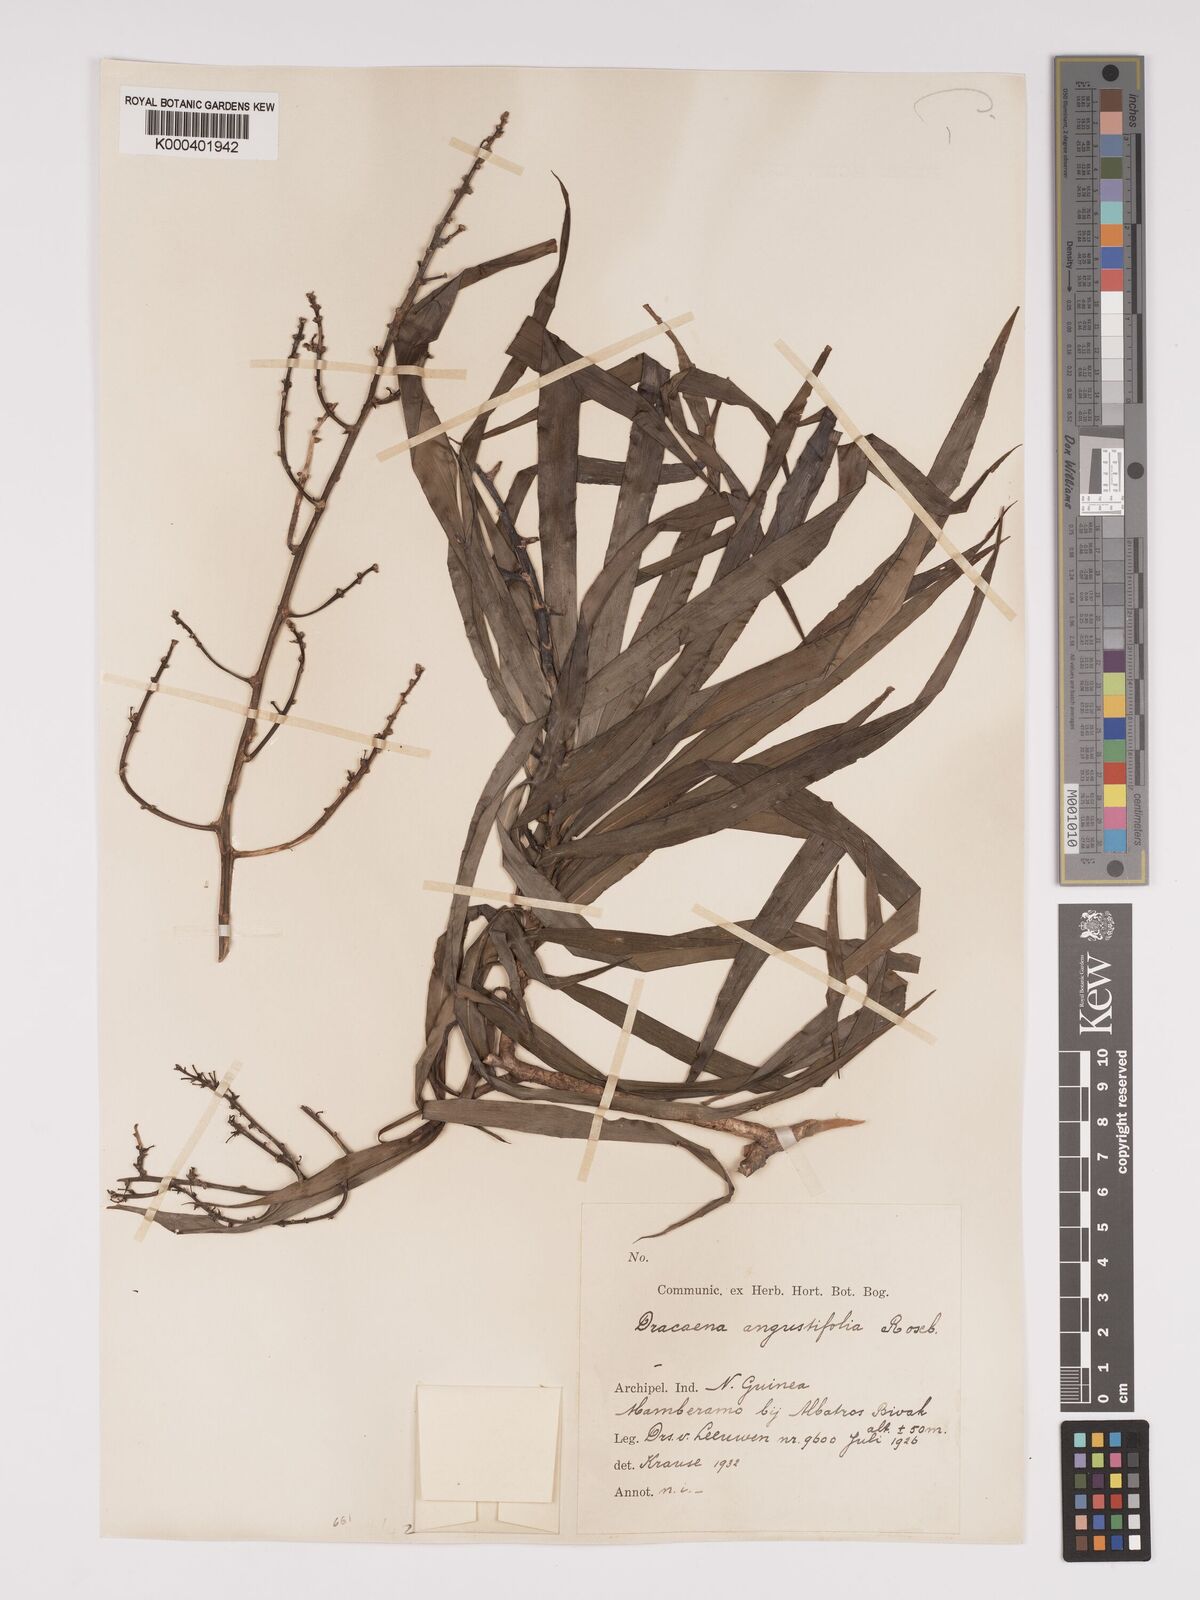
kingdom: Plantae
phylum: Tracheophyta
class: Liliopsida
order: Asparagales
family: Asparagaceae
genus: Dracaena
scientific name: Dracaena angustifolia
